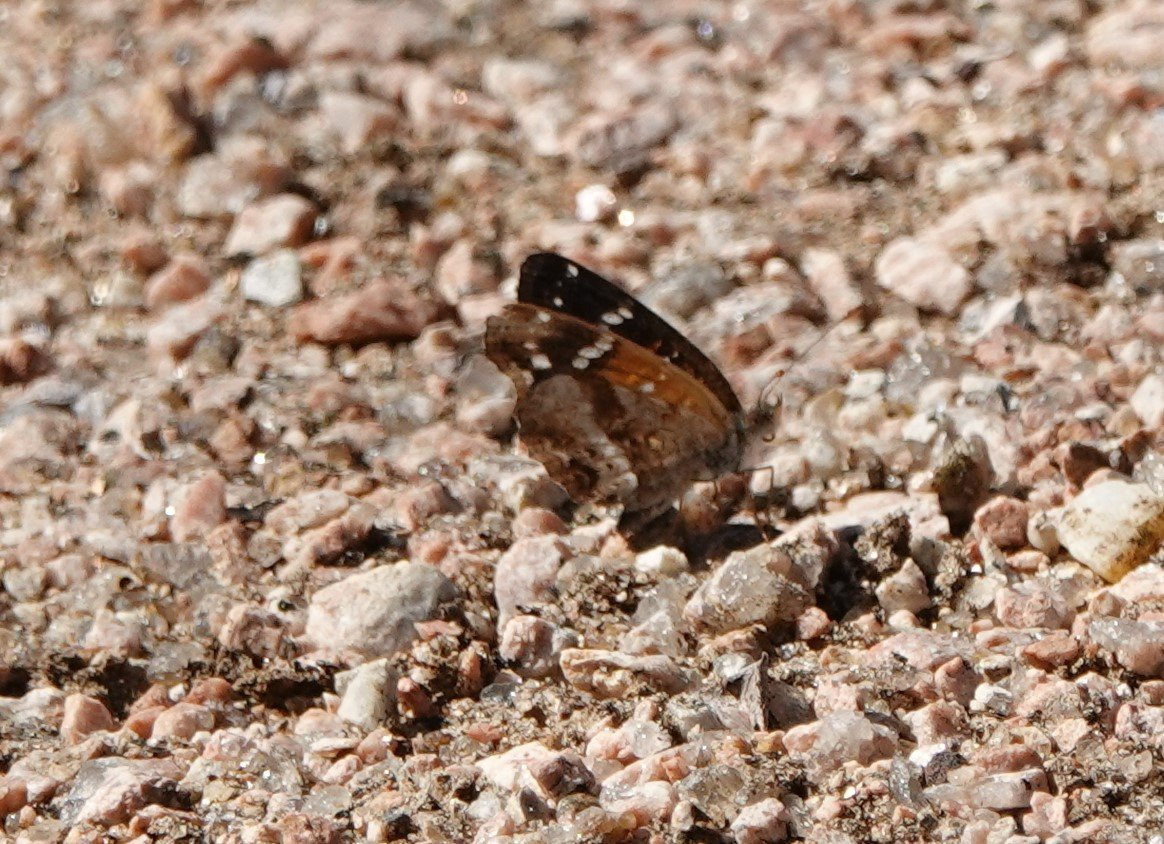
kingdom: Animalia
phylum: Arthropoda
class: Insecta
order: Lepidoptera
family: Nymphalidae
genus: Anthanassa
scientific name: Anthanassa texana
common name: Texan Crescent
